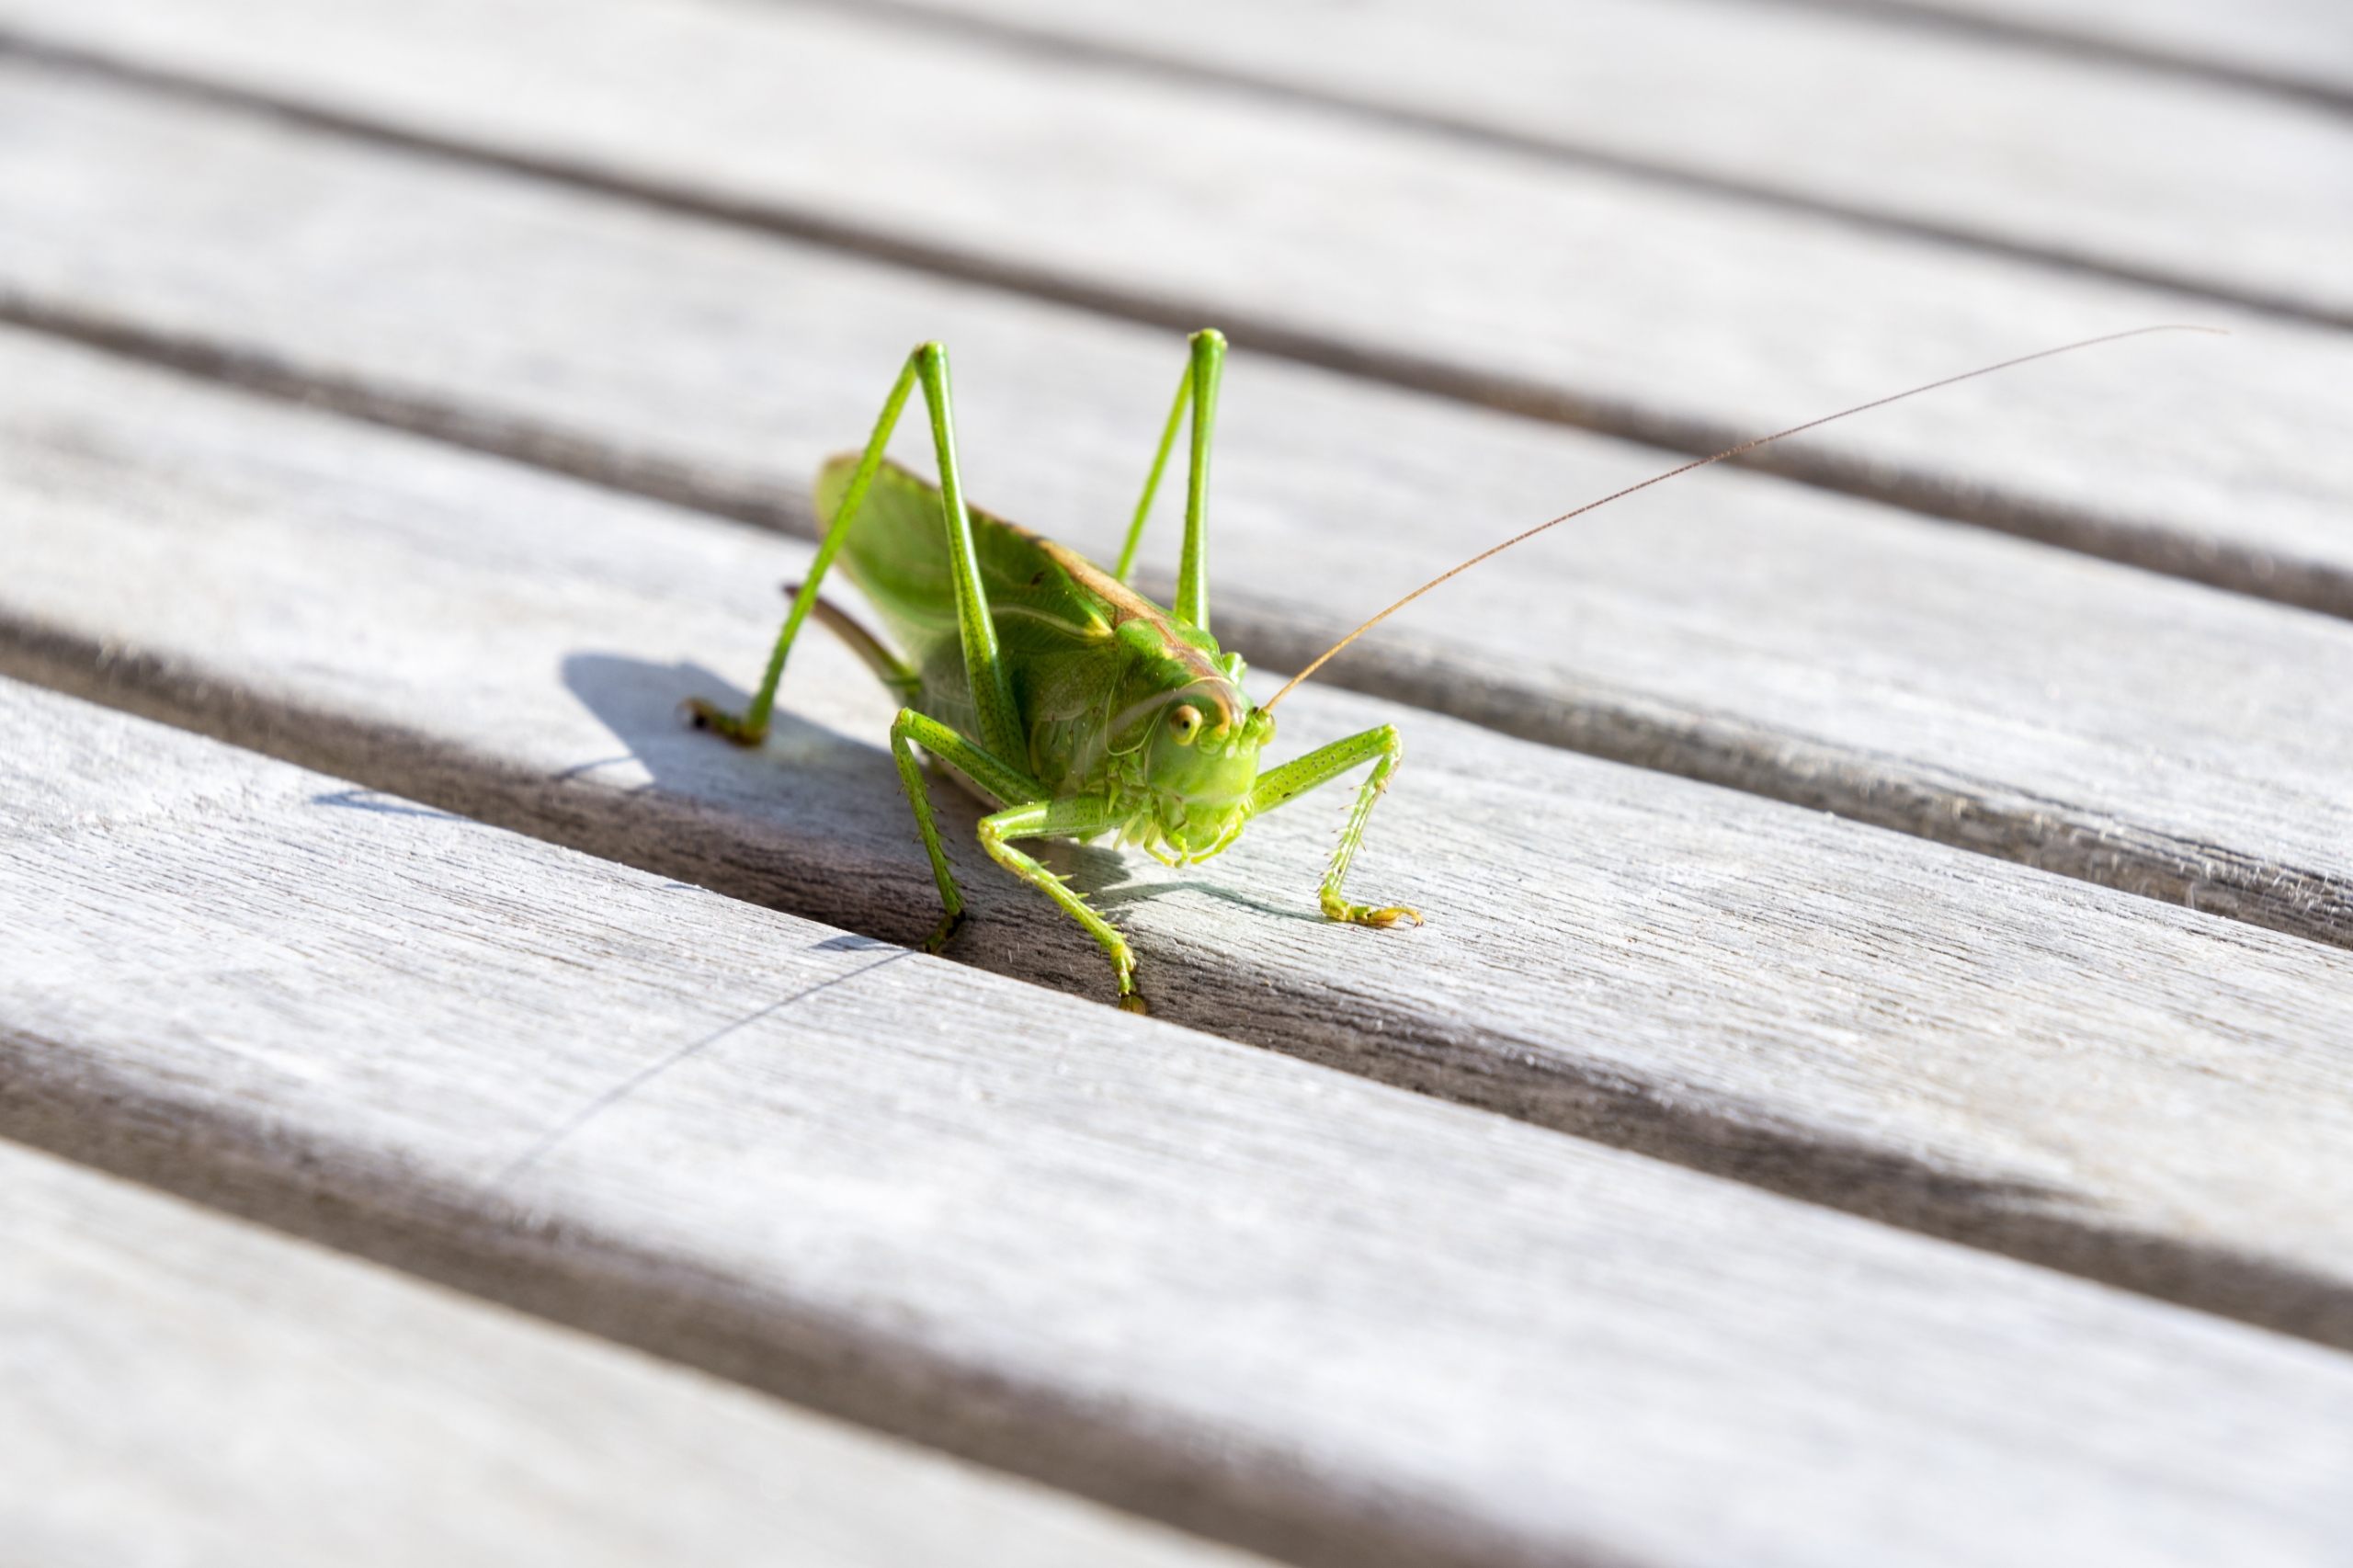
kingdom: Animalia
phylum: Arthropoda
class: Insecta
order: Orthoptera
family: Tettigoniidae
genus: Tettigonia
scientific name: Tettigonia viridissima
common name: Stor grøn løvgræshoppe
